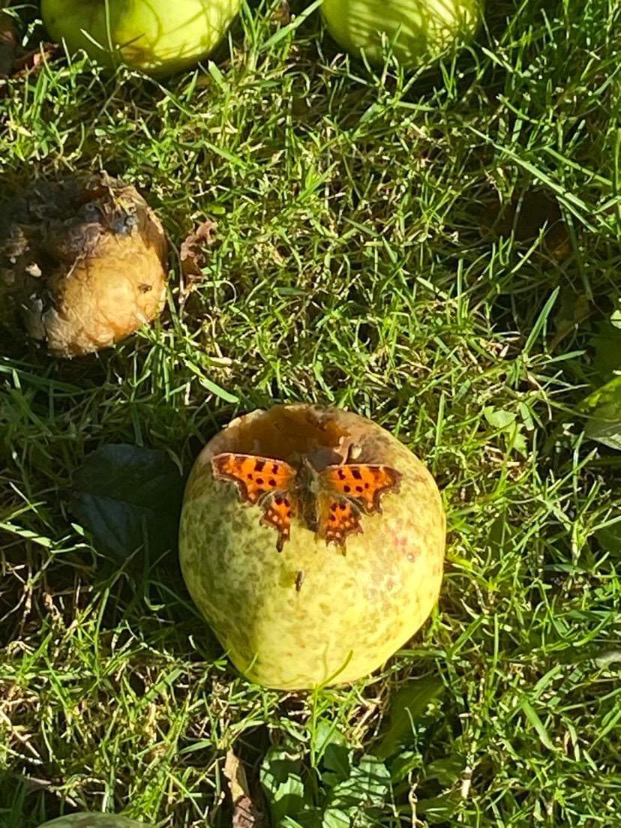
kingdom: Animalia
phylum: Arthropoda
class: Insecta
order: Lepidoptera
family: Nymphalidae
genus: Polygonia
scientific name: Polygonia c-album
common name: Det hvide C
